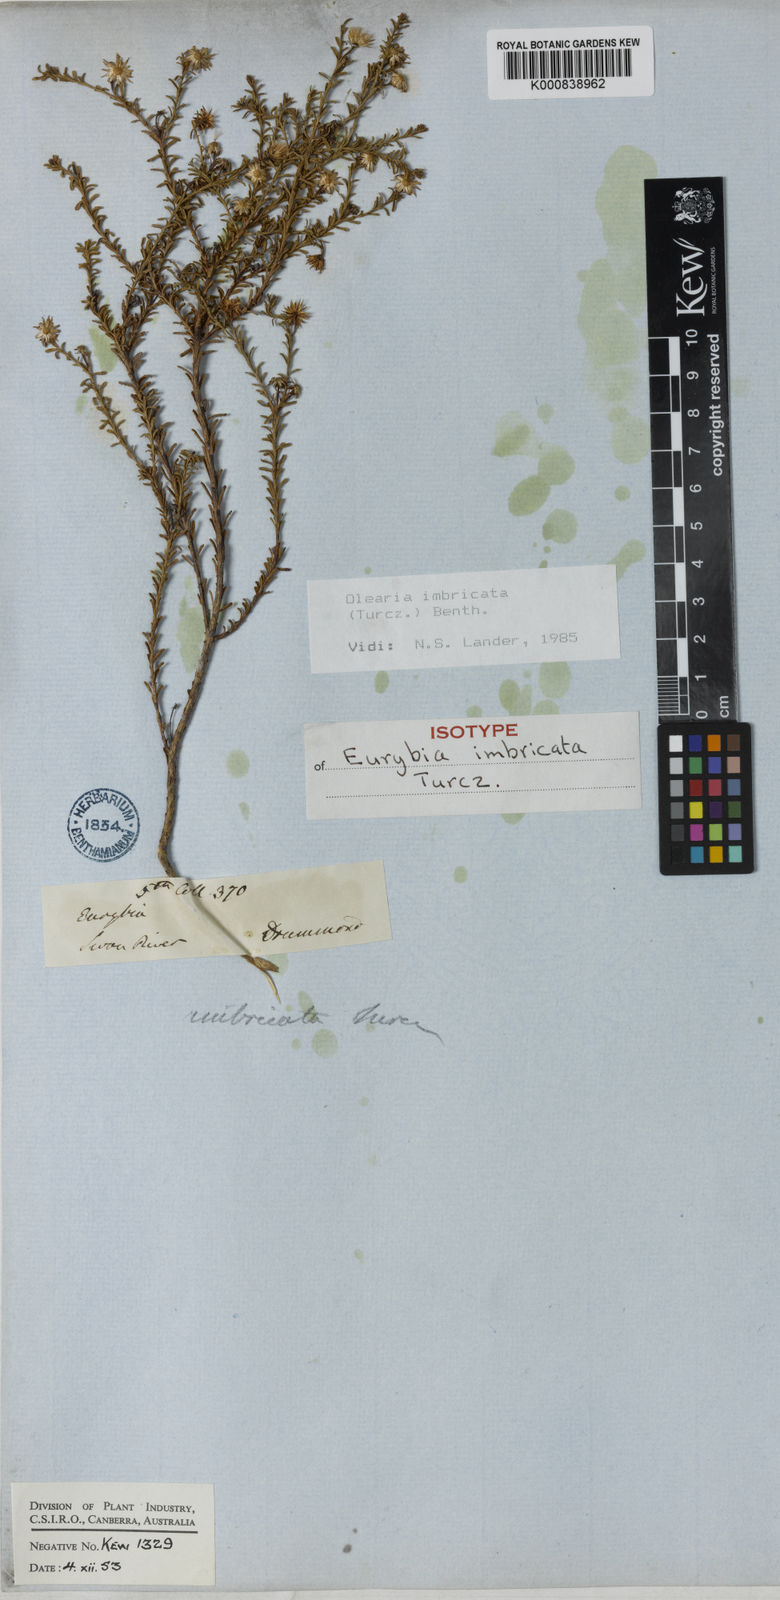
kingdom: Plantae
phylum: Tracheophyta
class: Magnoliopsida
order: Asterales
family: Asteraceae
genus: Olearia
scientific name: Olearia imbricata
